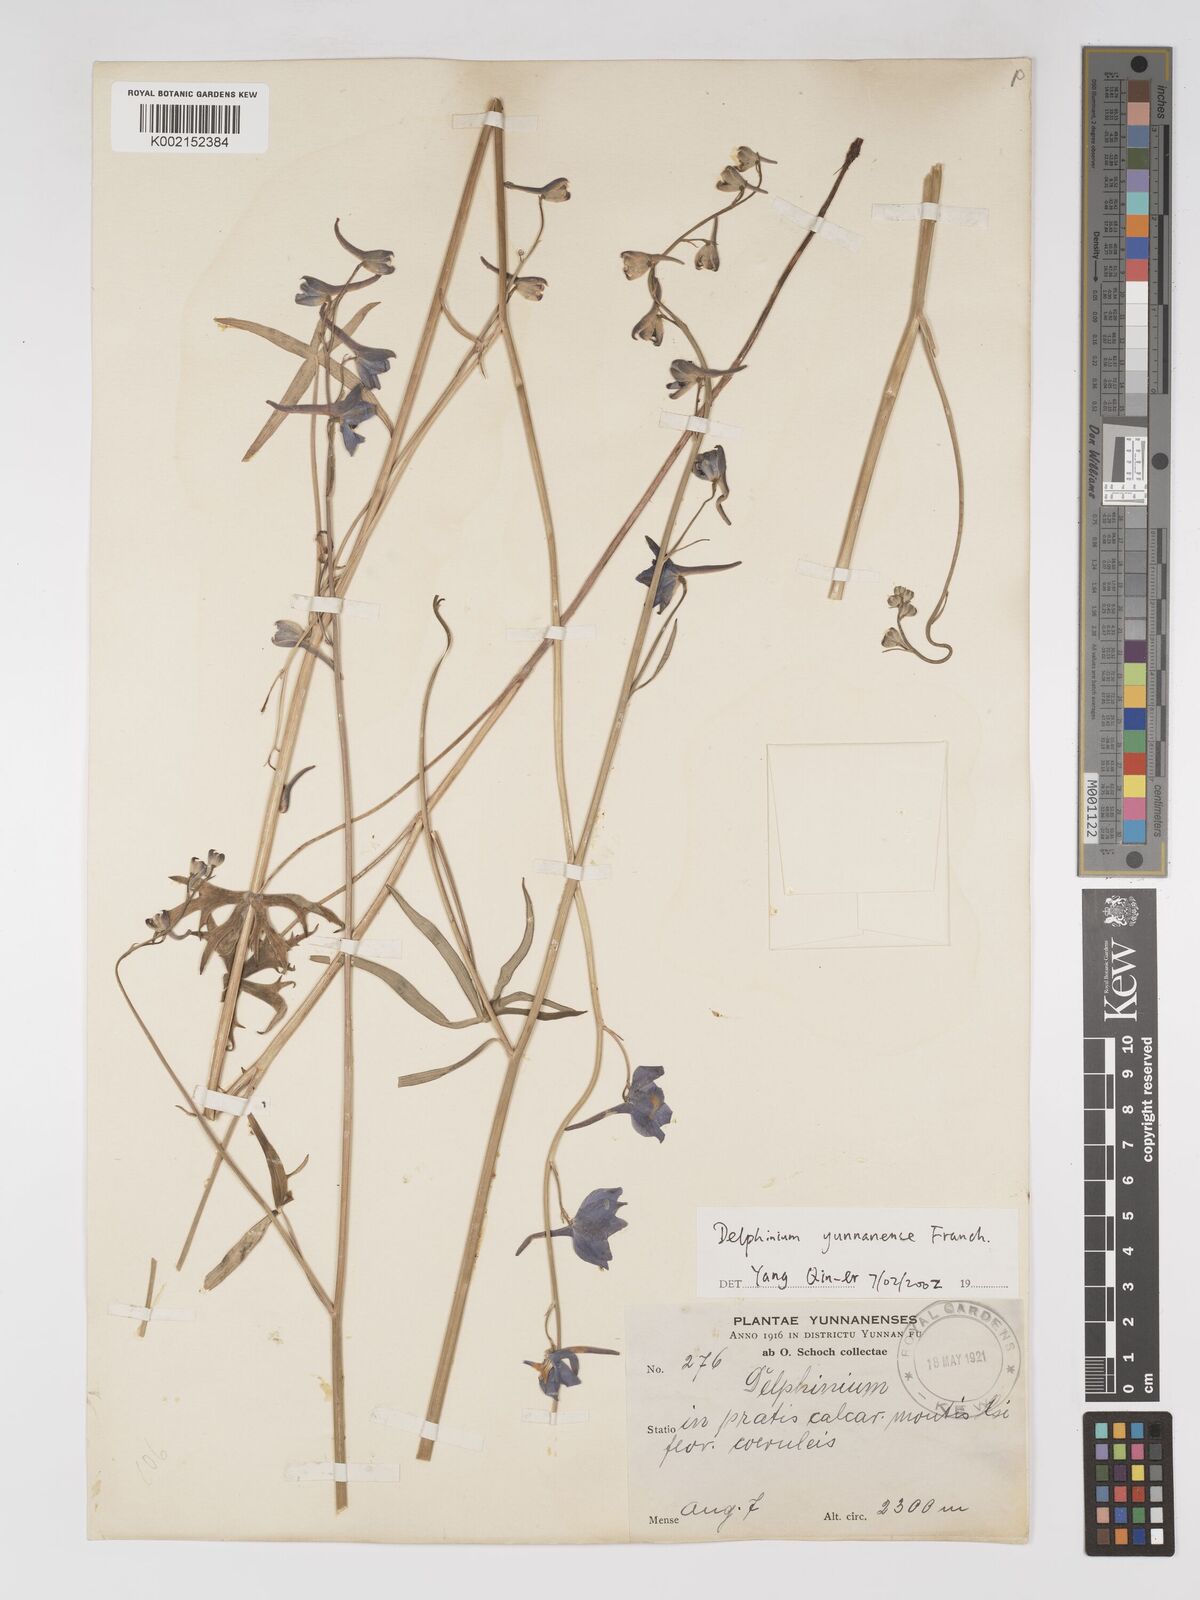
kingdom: Plantae
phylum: Tracheophyta
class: Magnoliopsida
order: Ranunculales
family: Ranunculaceae
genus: Delphinium
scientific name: Delphinium yunnanense
